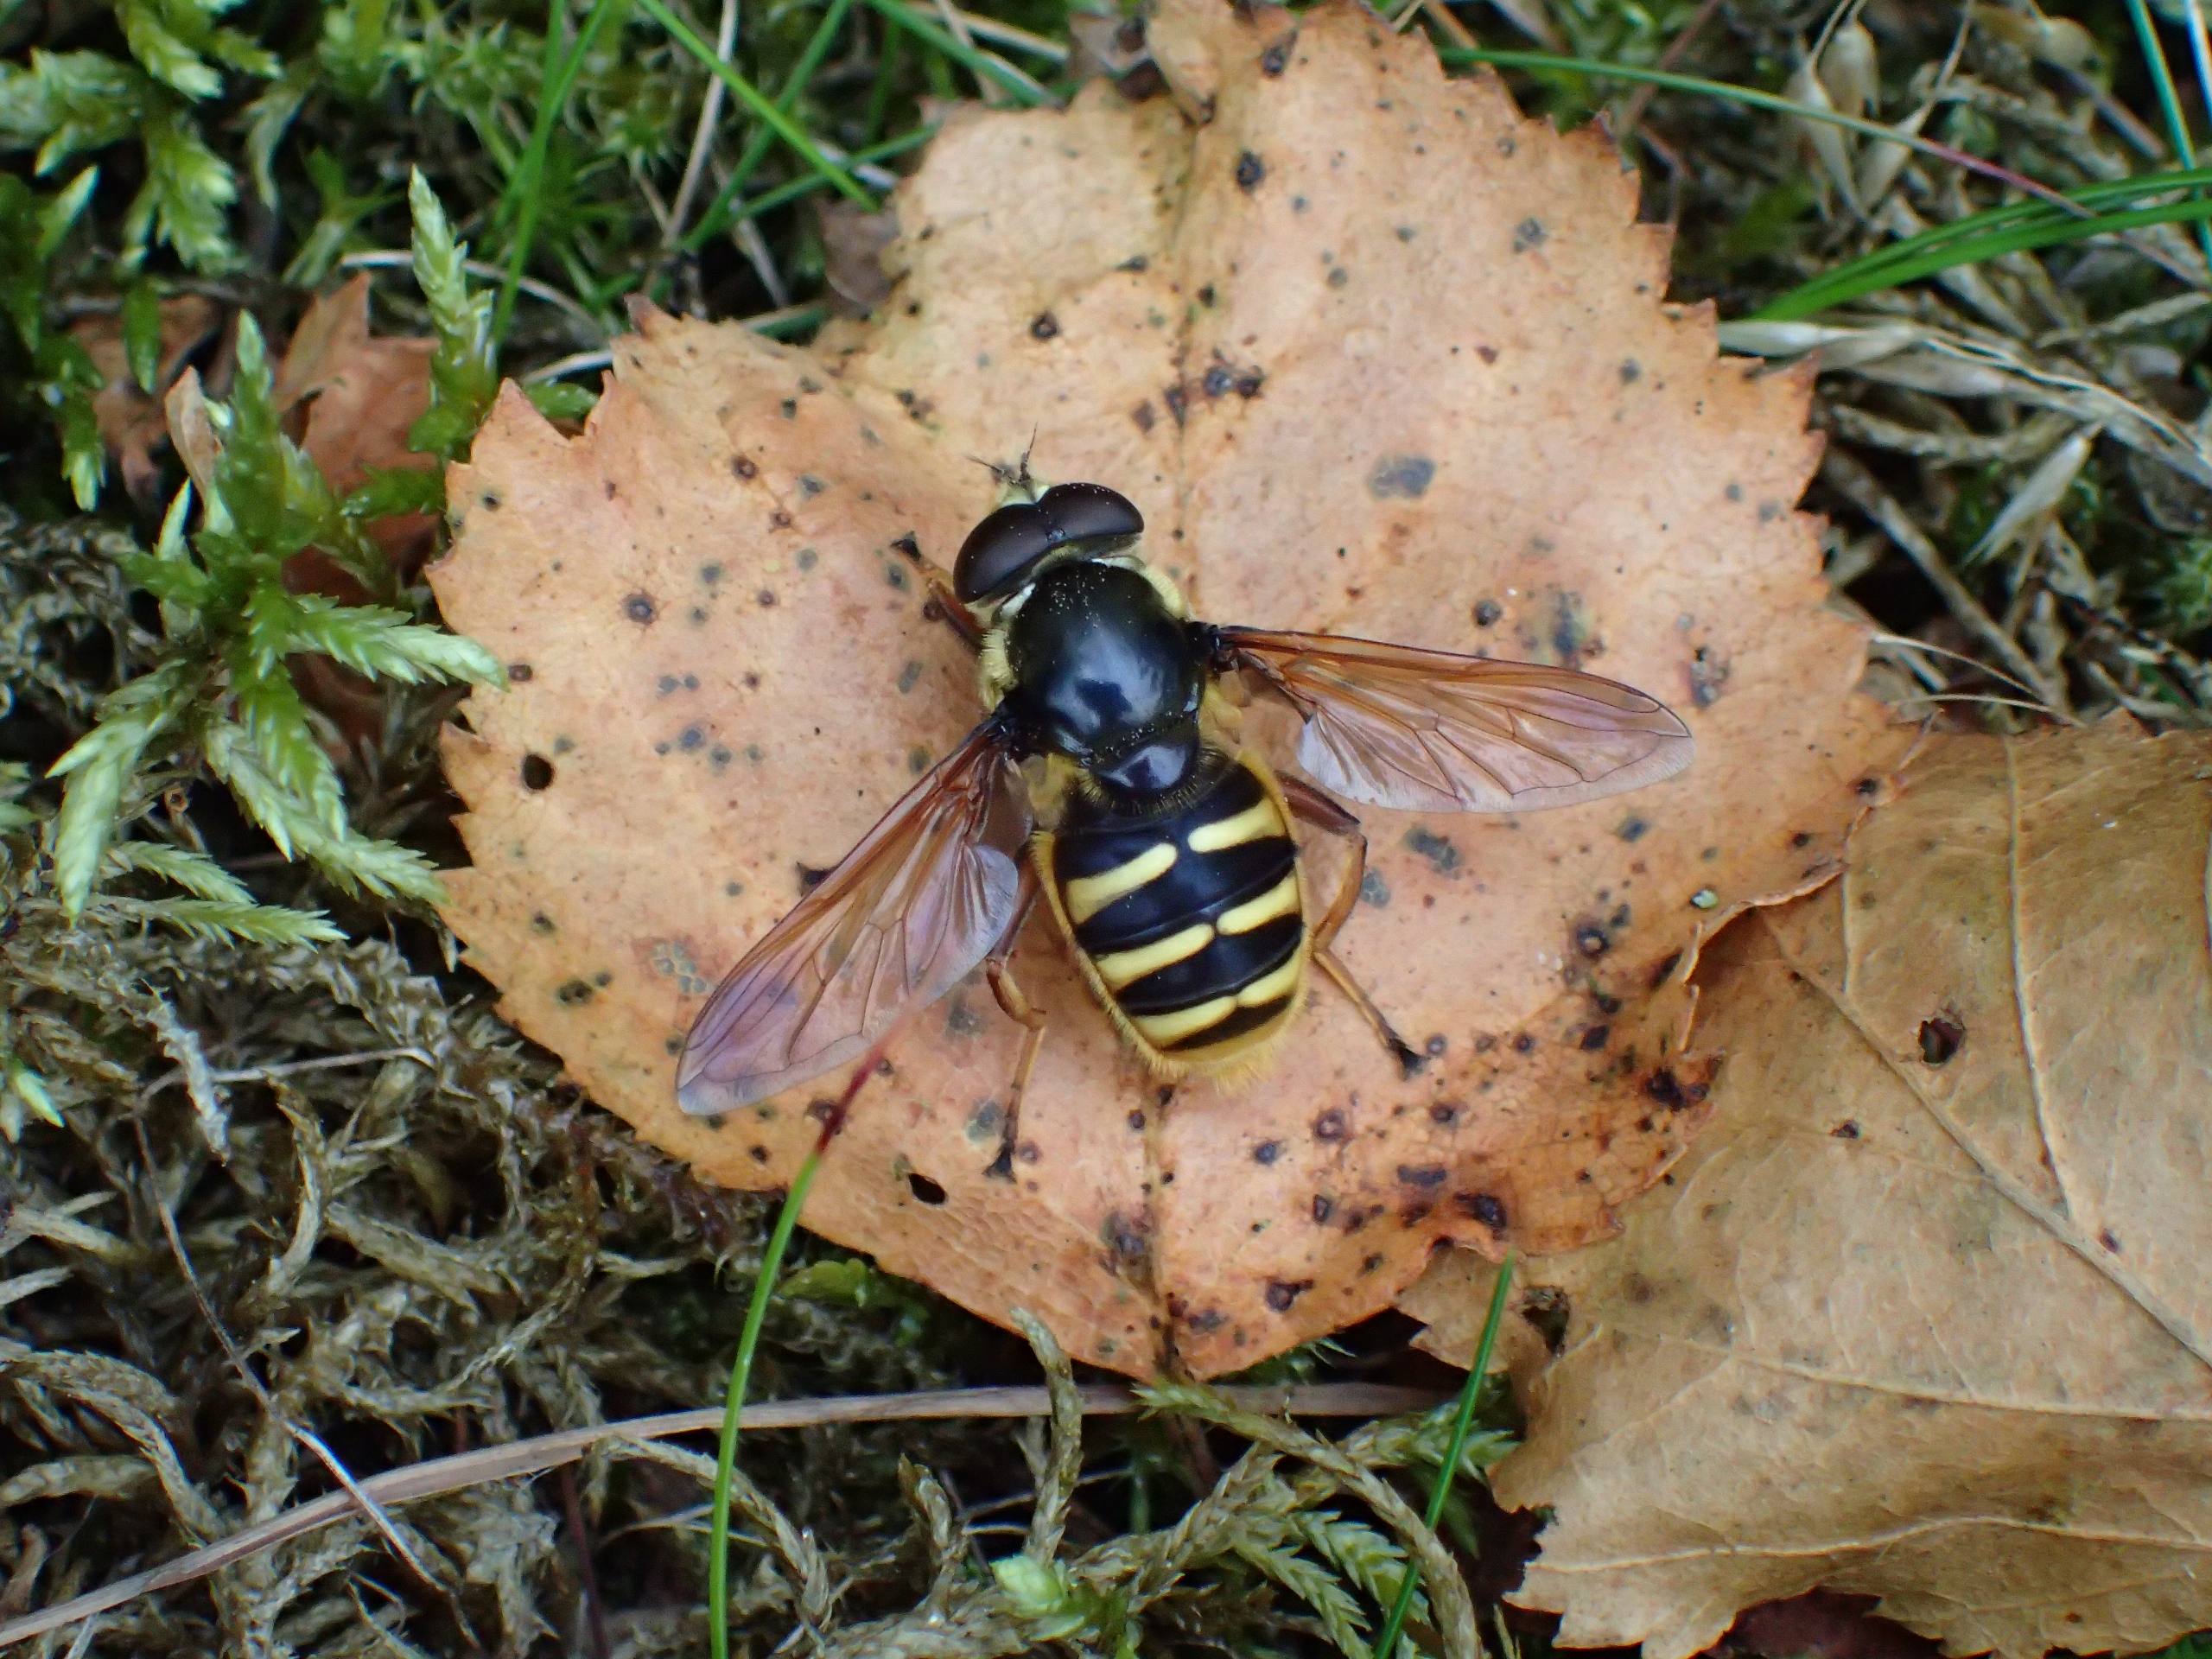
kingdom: Animalia
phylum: Arthropoda
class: Insecta
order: Diptera
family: Syrphidae
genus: Sericomyia
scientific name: Sericomyia silentis
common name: Tørve-silkesvirreflue
